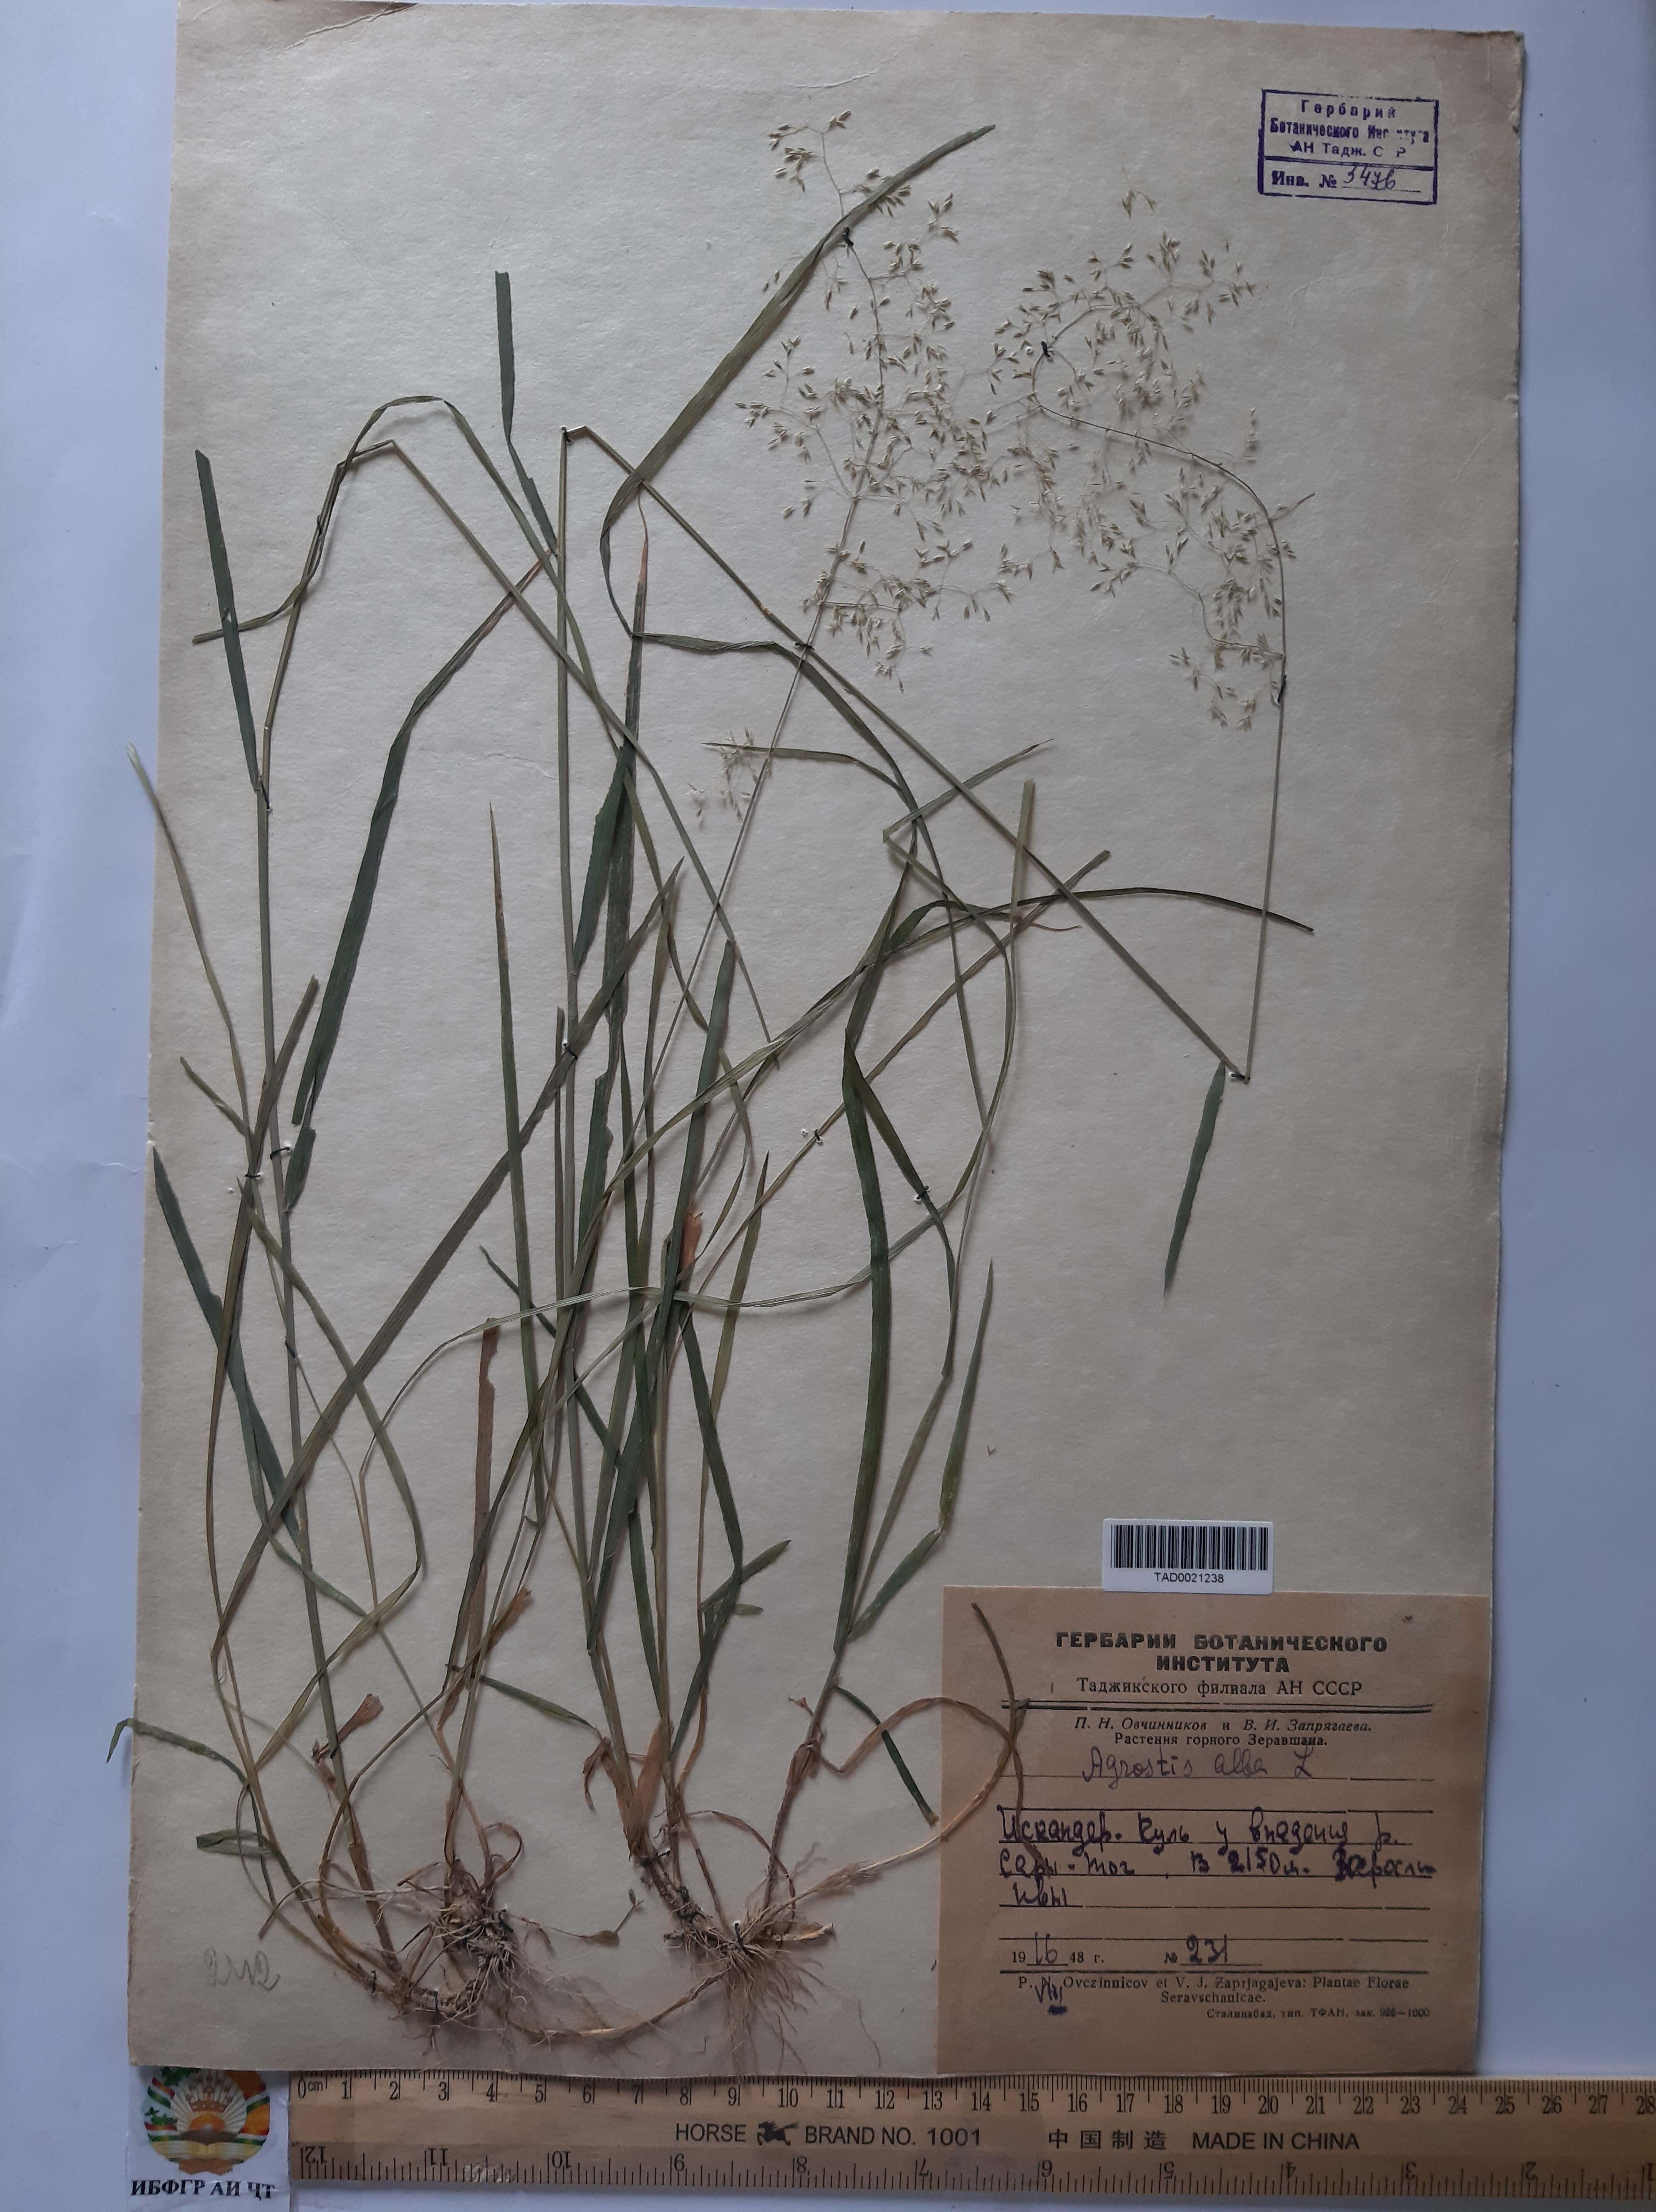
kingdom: Plantae
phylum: Tracheophyta
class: Liliopsida
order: Poales
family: Poaceae
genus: Poa
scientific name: Poa nemoralis
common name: Wood bluegrass
